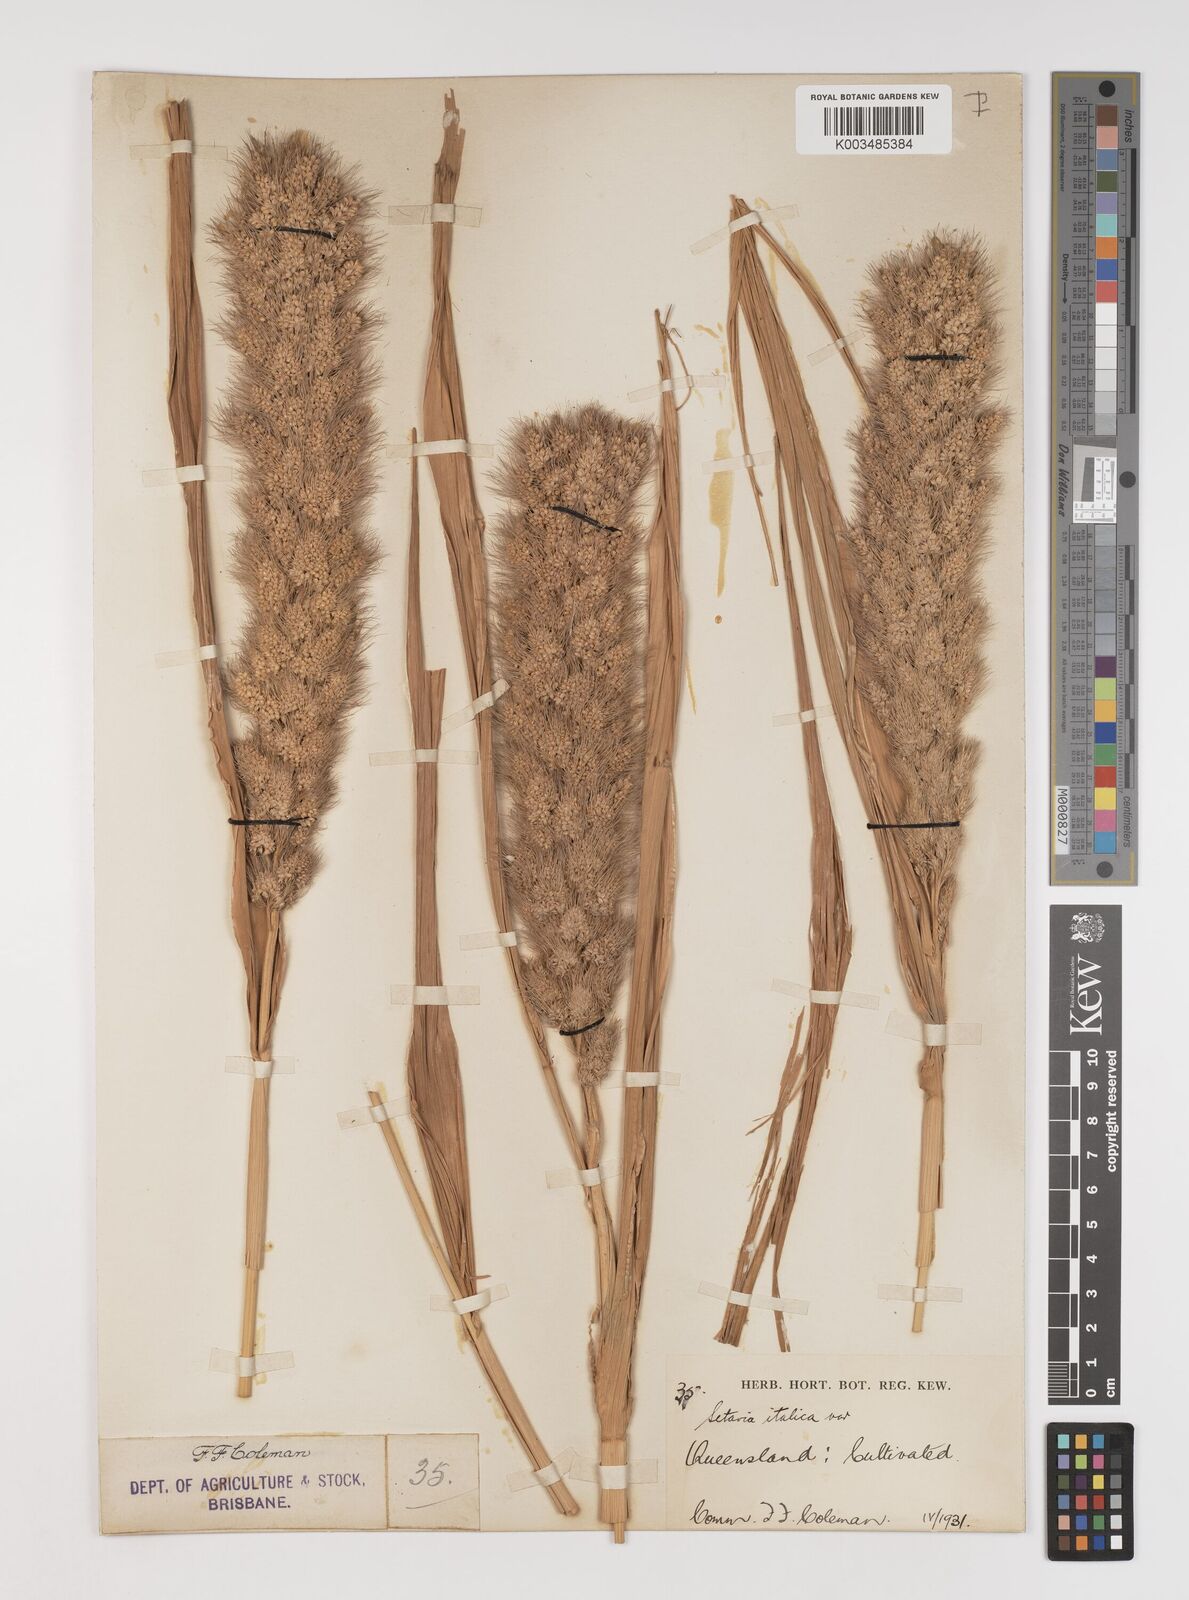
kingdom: Plantae
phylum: Tracheophyta
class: Liliopsida
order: Poales
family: Poaceae
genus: Setaria
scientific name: Setaria italica
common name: Foxtail bristle-grass
